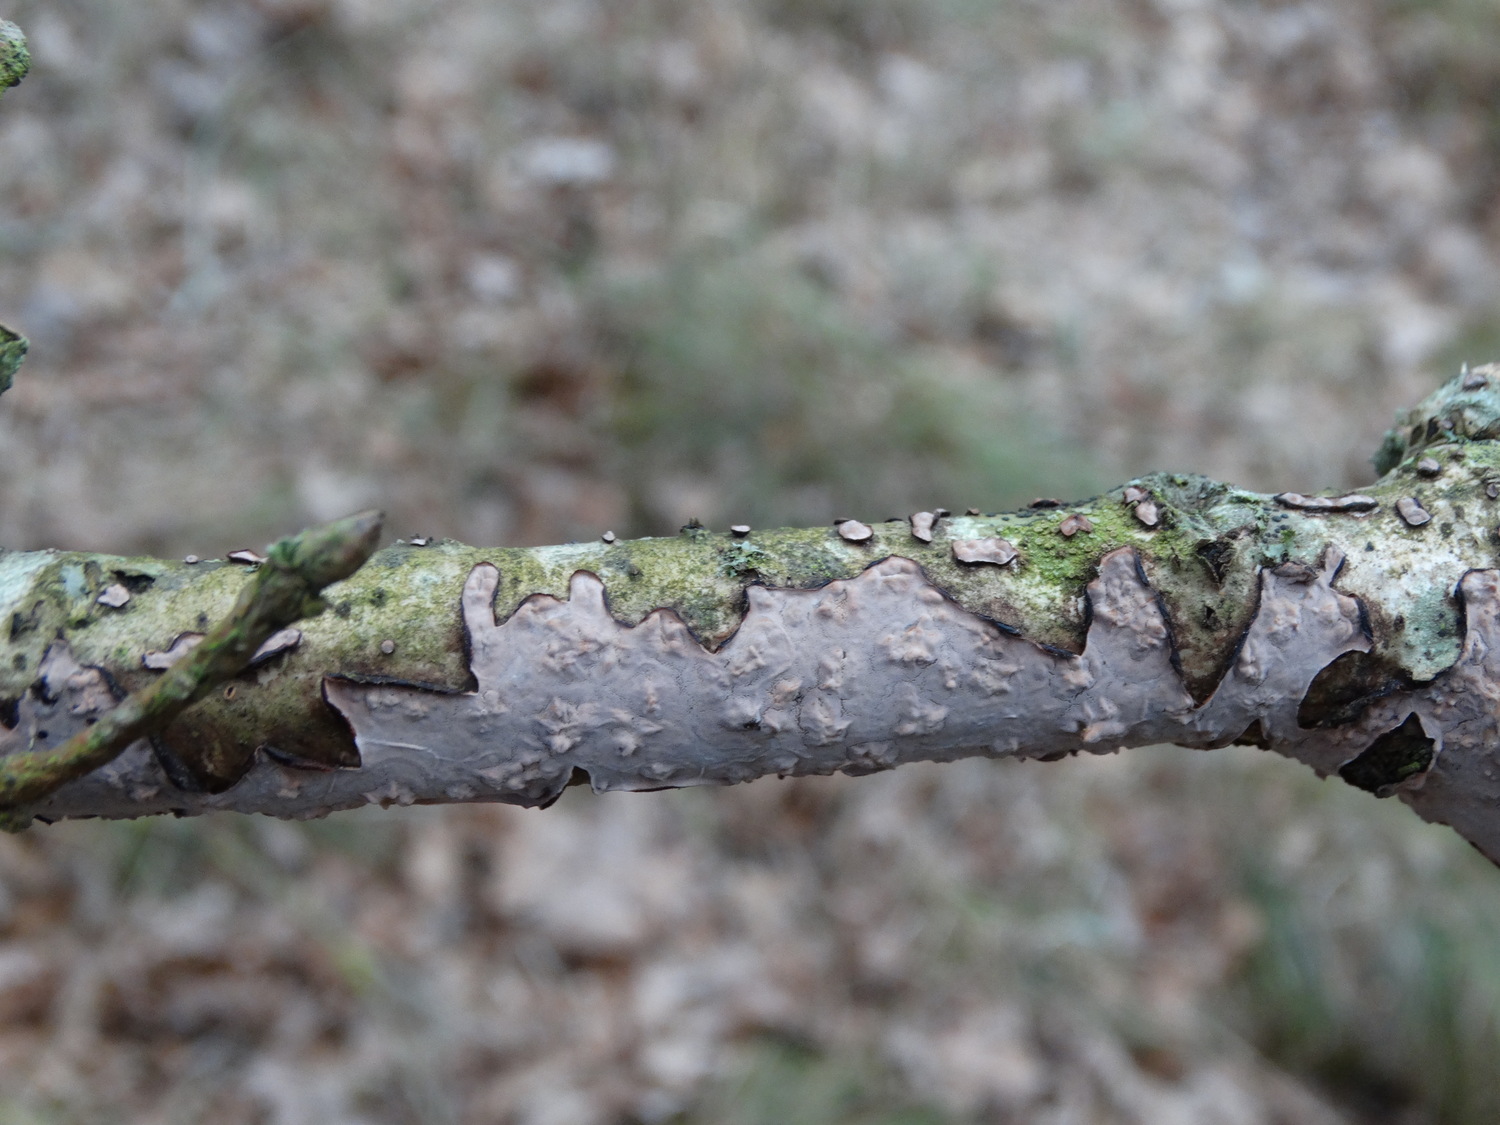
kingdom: Fungi
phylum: Basidiomycota
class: Agaricomycetes
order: Russulales
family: Peniophoraceae
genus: Peniophora
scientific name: Peniophora quercina
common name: ege-voksskind
